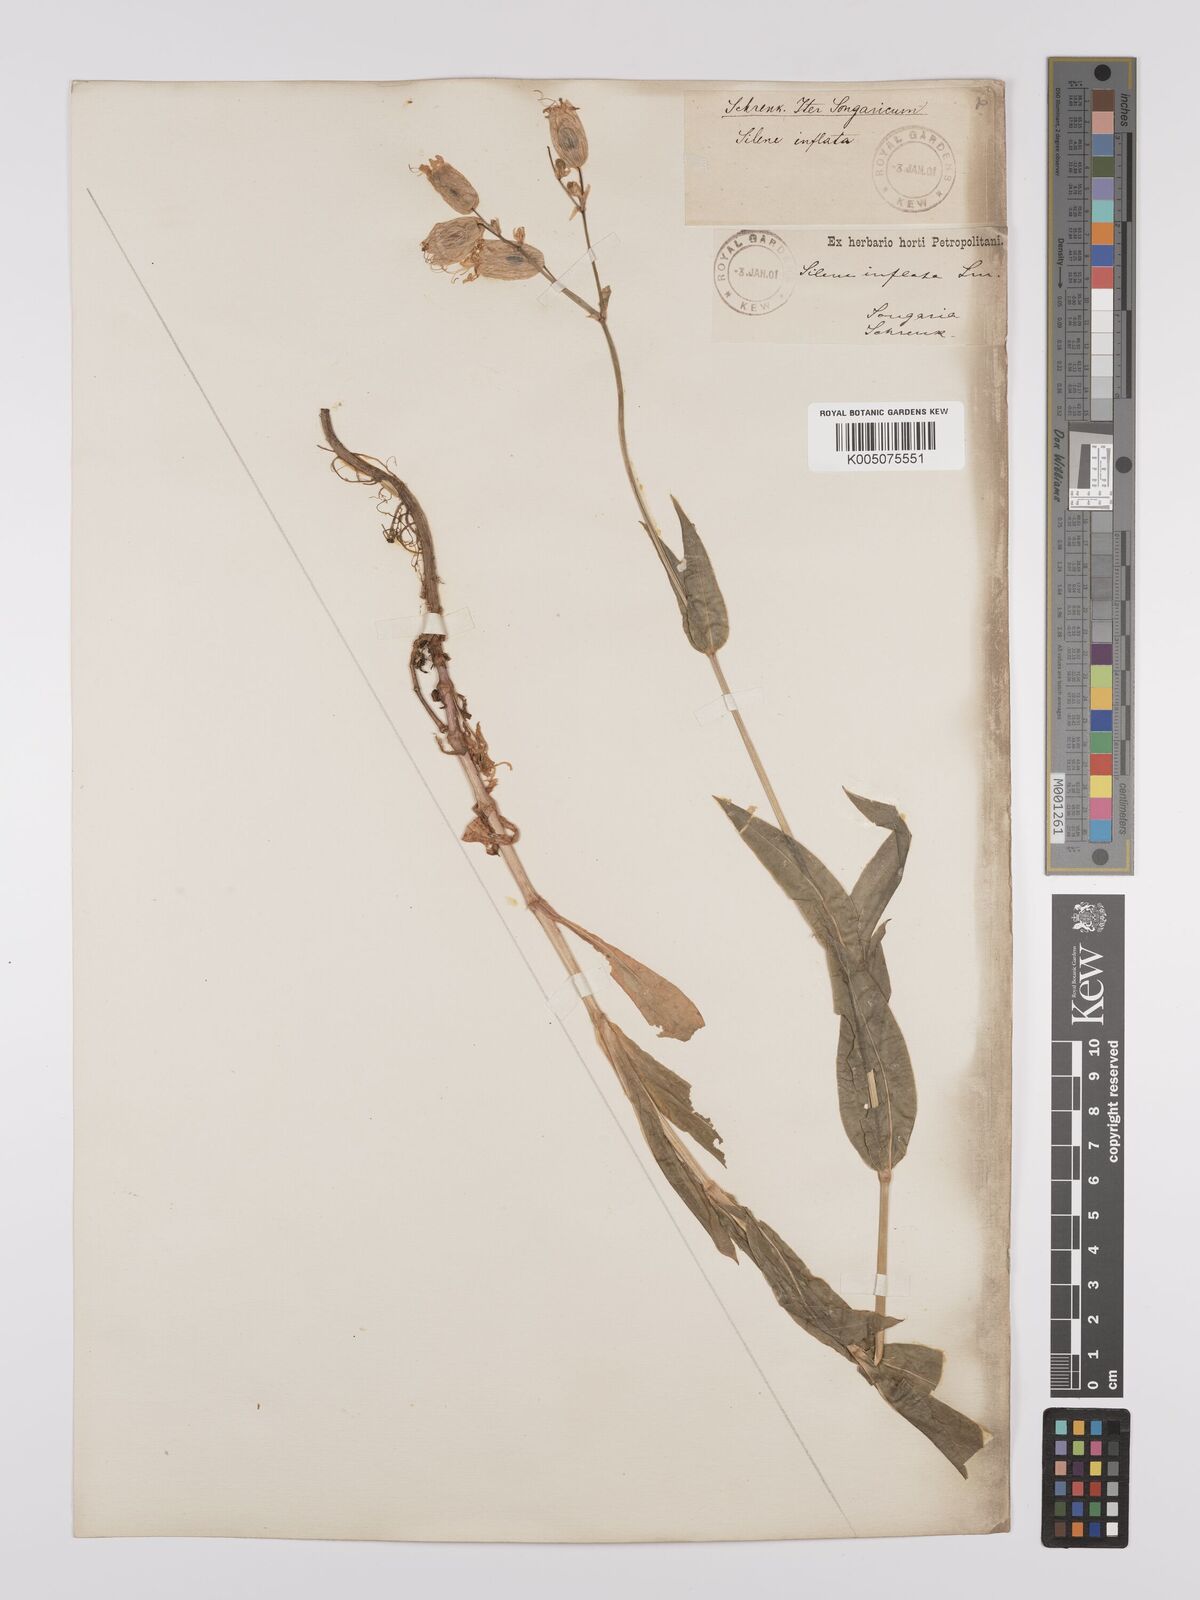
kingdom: Plantae
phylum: Tracheophyta
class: Magnoliopsida
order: Caryophyllales
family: Caryophyllaceae
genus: Silene
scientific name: Silene vulgaris
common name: Bladder campion
